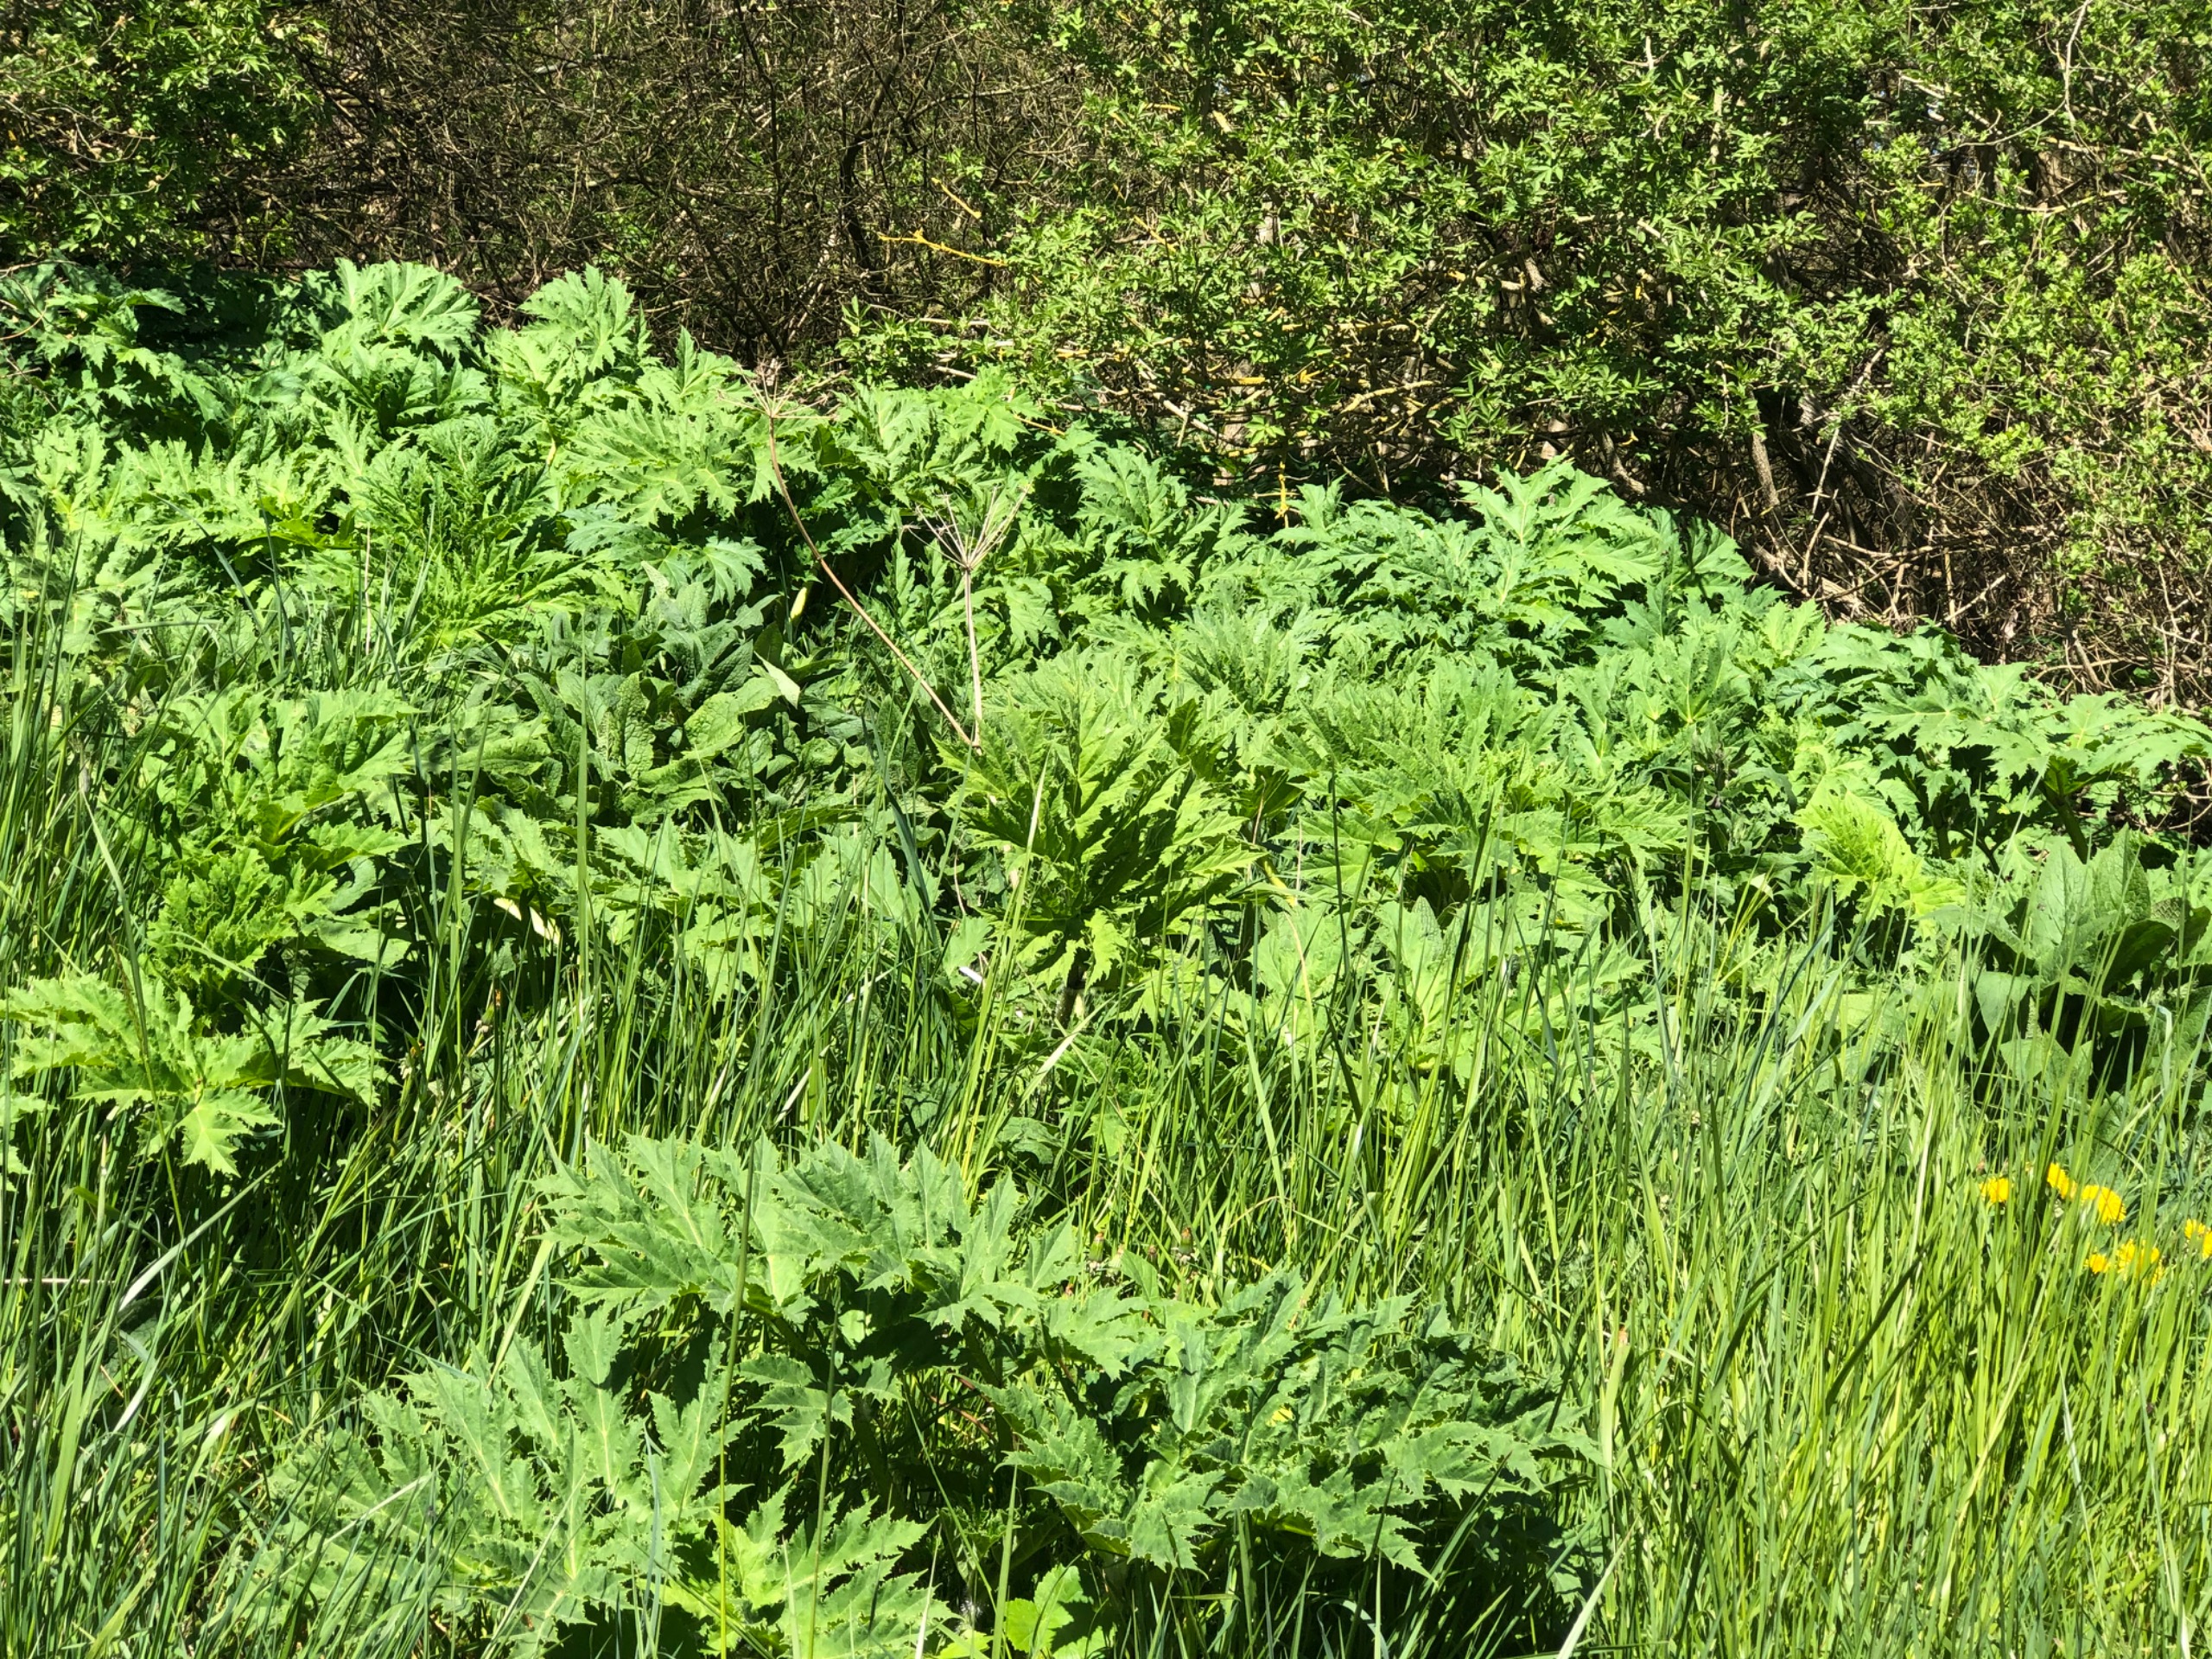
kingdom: Plantae
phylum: Tracheophyta
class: Magnoliopsida
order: Apiales
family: Apiaceae
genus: Heracleum
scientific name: Heracleum mantegazzianum
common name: Kæmpe-bjørneklo
